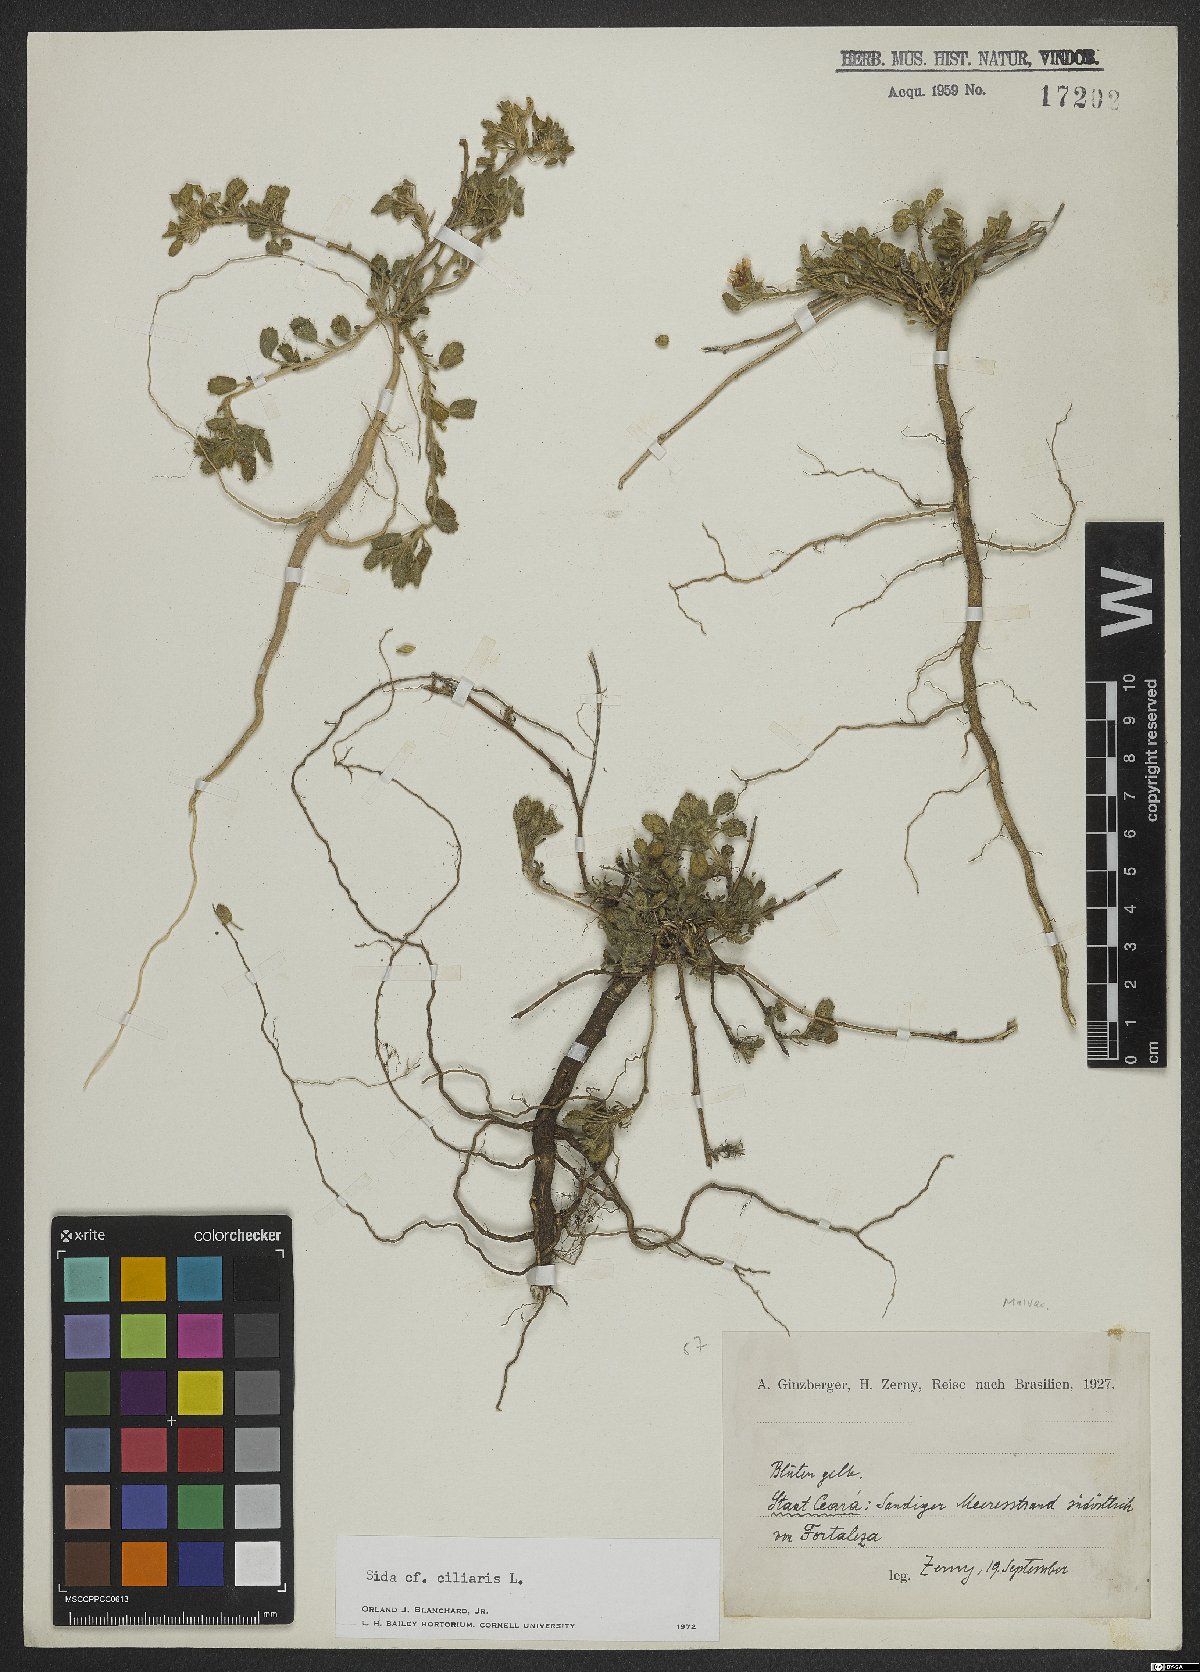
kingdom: Plantae
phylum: Tracheophyta
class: Magnoliopsida
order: Malvales
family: Malvaceae
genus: Sida
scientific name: Sida ciliaris
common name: Bracted fanpetals
